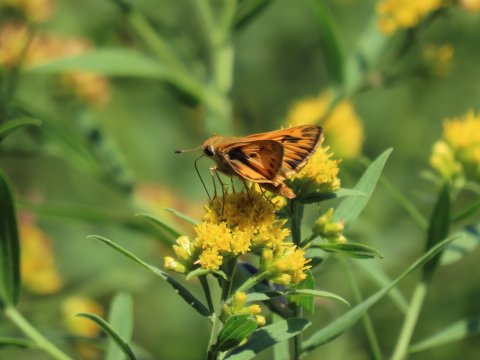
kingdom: Animalia
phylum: Arthropoda
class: Insecta
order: Lepidoptera
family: Hesperiidae
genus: Hylephila
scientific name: Hylephila phyleus
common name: Fiery Skipper
